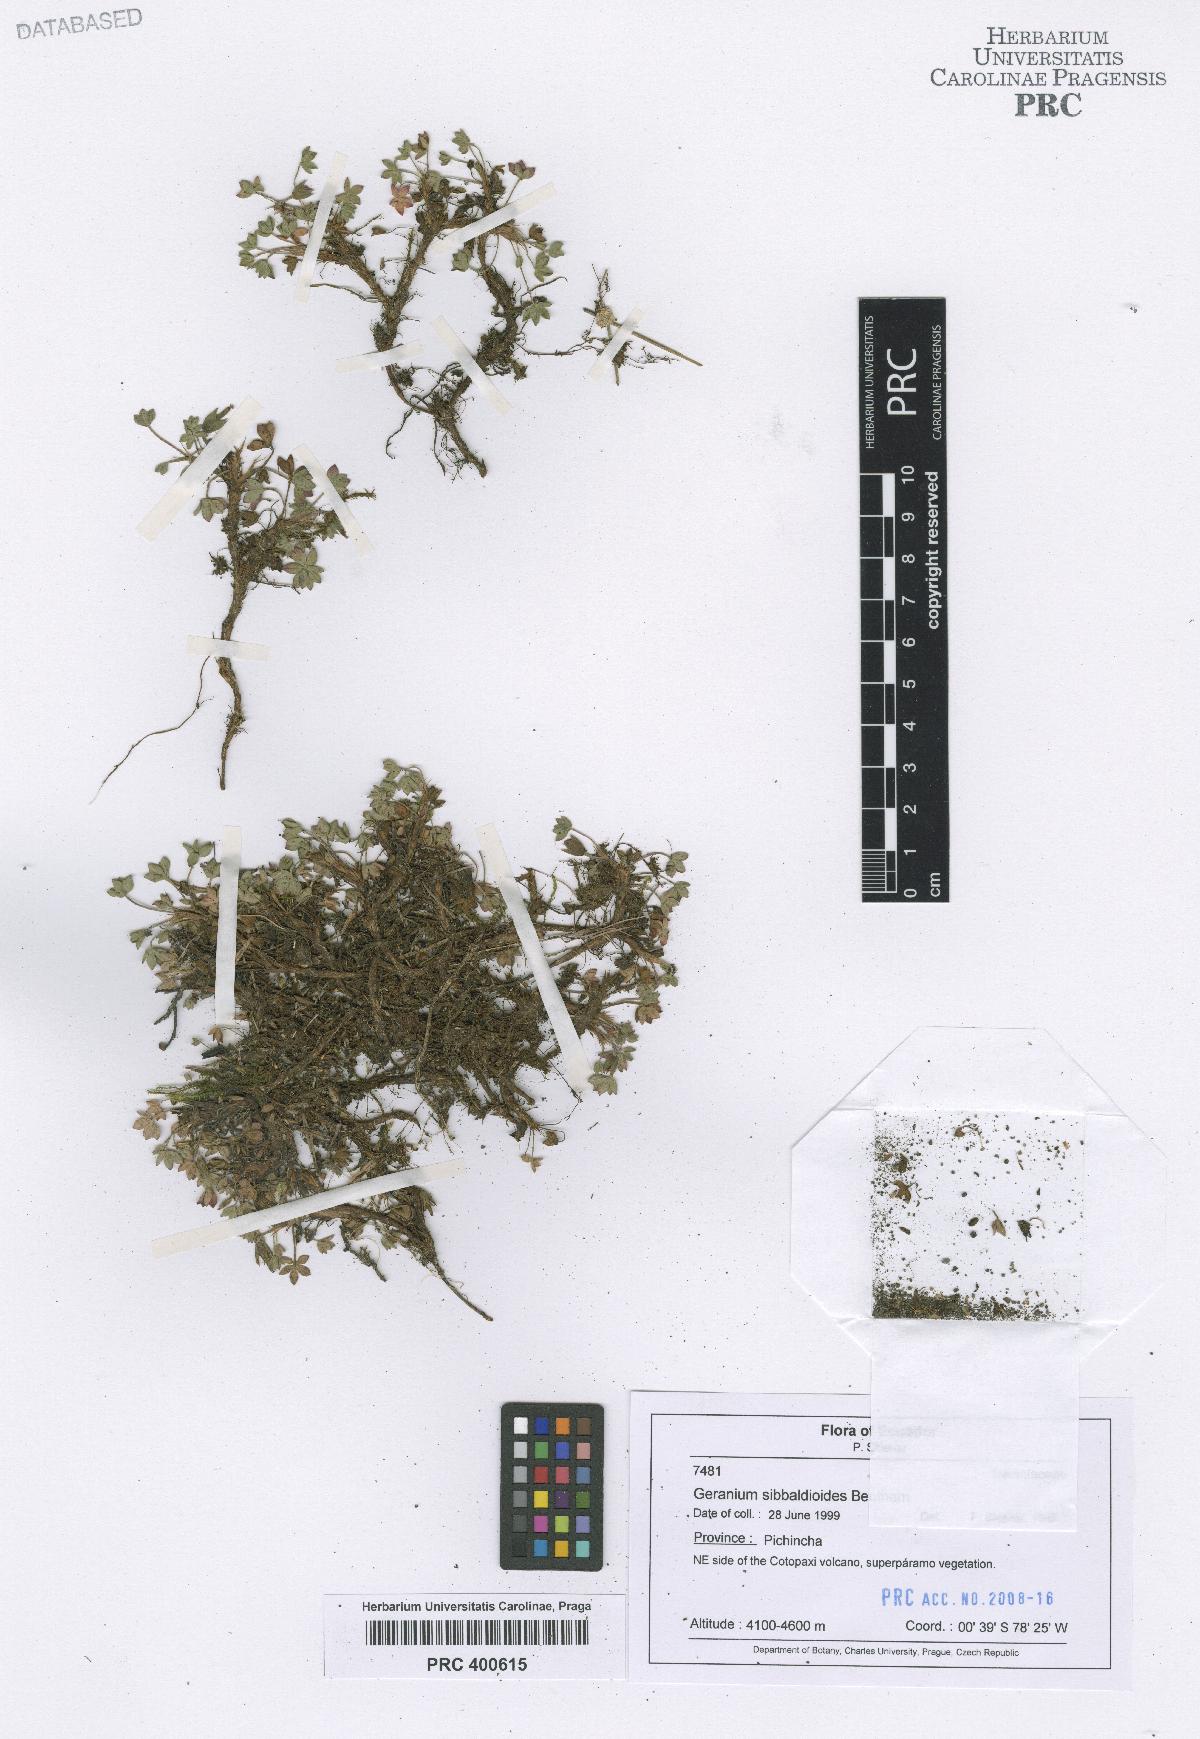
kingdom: Plantae
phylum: Tracheophyta
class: Magnoliopsida
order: Geraniales
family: Geraniaceae
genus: Geranium
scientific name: Geranium sibbaldioides
